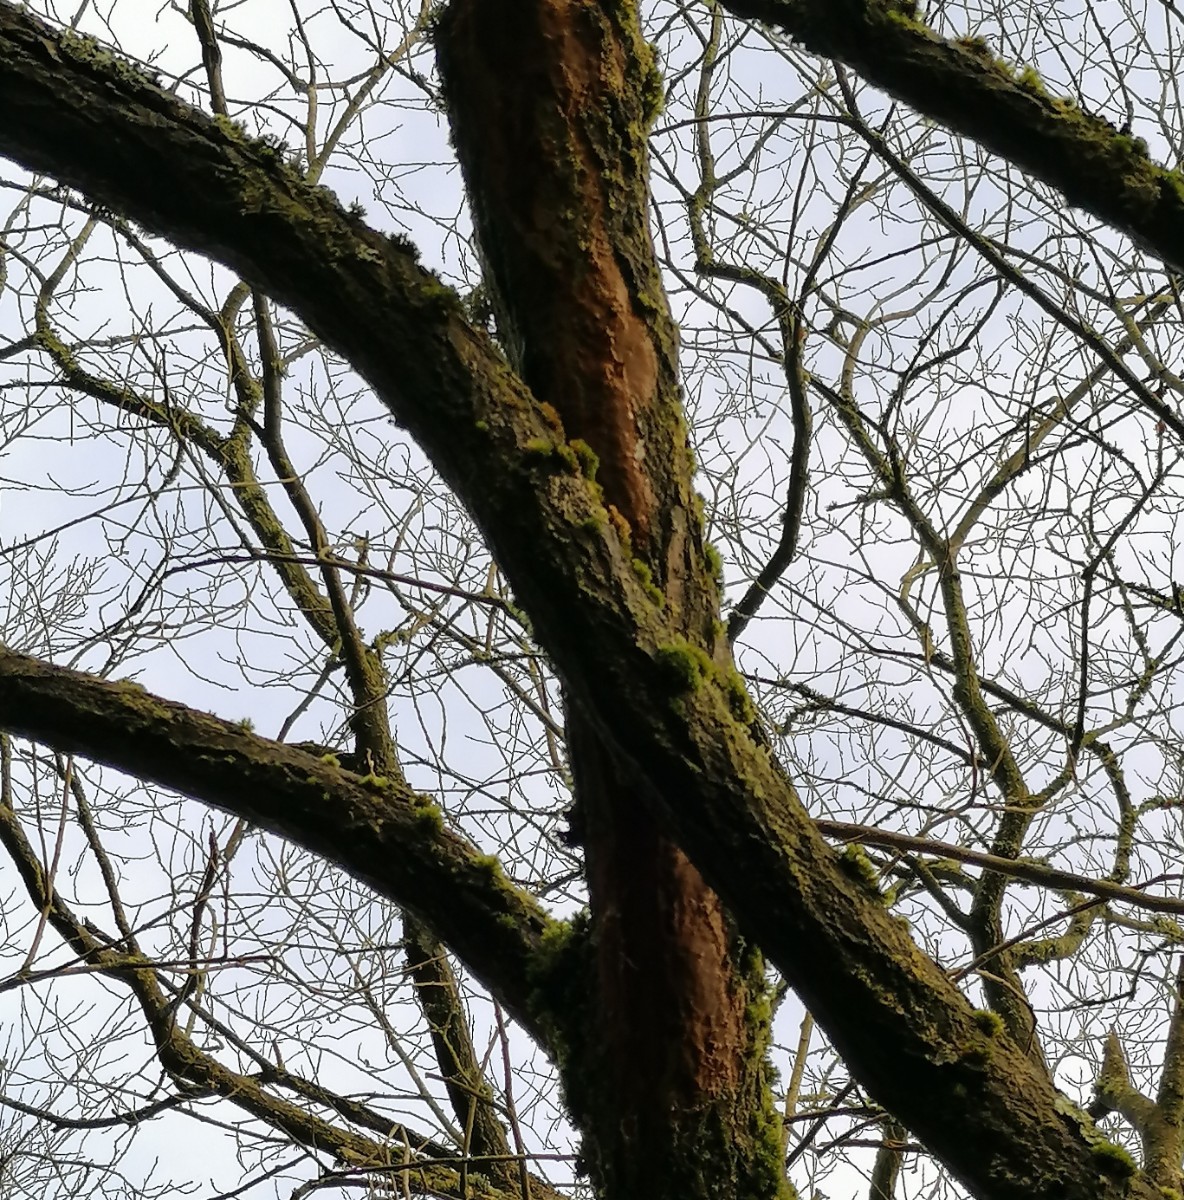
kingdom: Fungi
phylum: Basidiomycota
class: Agaricomycetes
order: Hymenochaetales
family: Hymenochaetaceae
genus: Fuscoporia
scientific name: Fuscoporia ferrea
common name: skorpe-ildporesvamp
